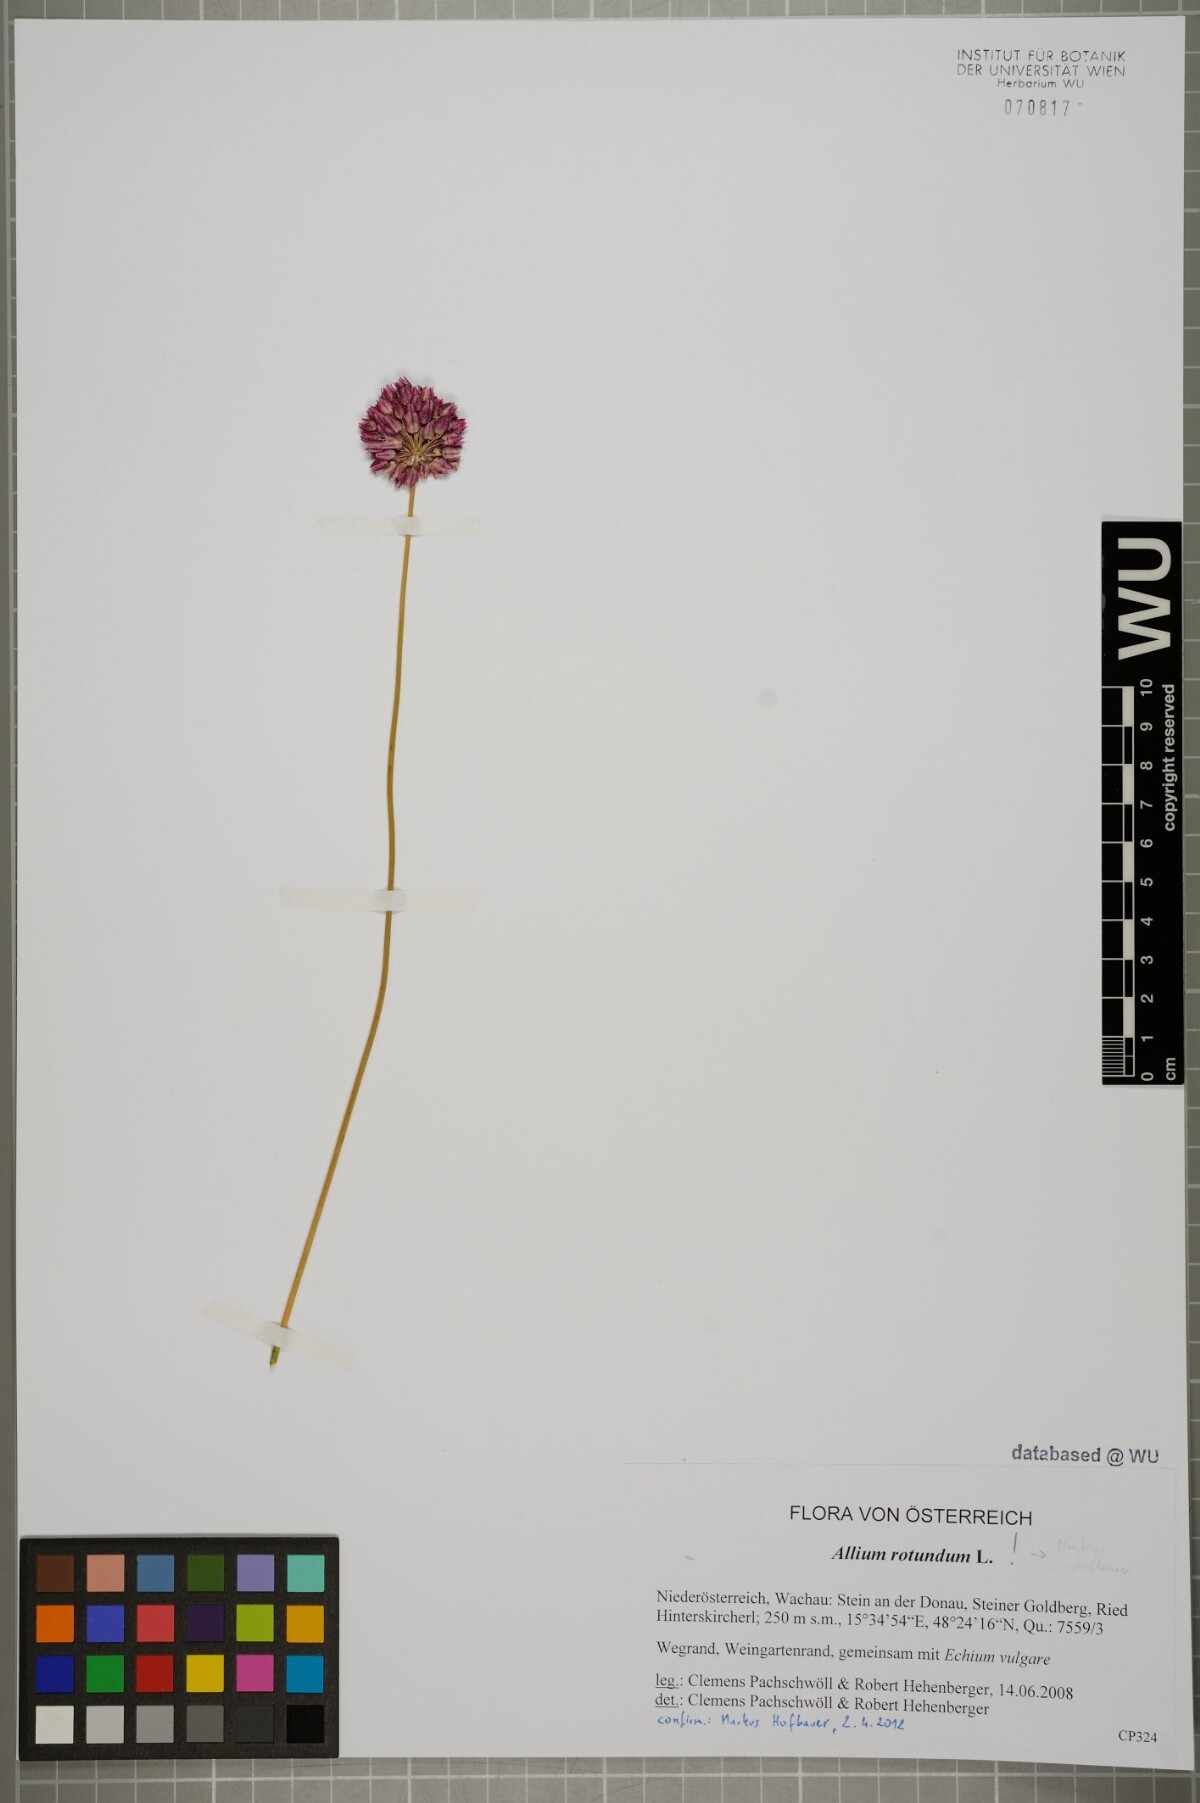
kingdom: Plantae
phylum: Tracheophyta
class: Liliopsida
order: Asparagales
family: Amaryllidaceae
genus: Allium
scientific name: Allium rotundum
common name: Sand leek
